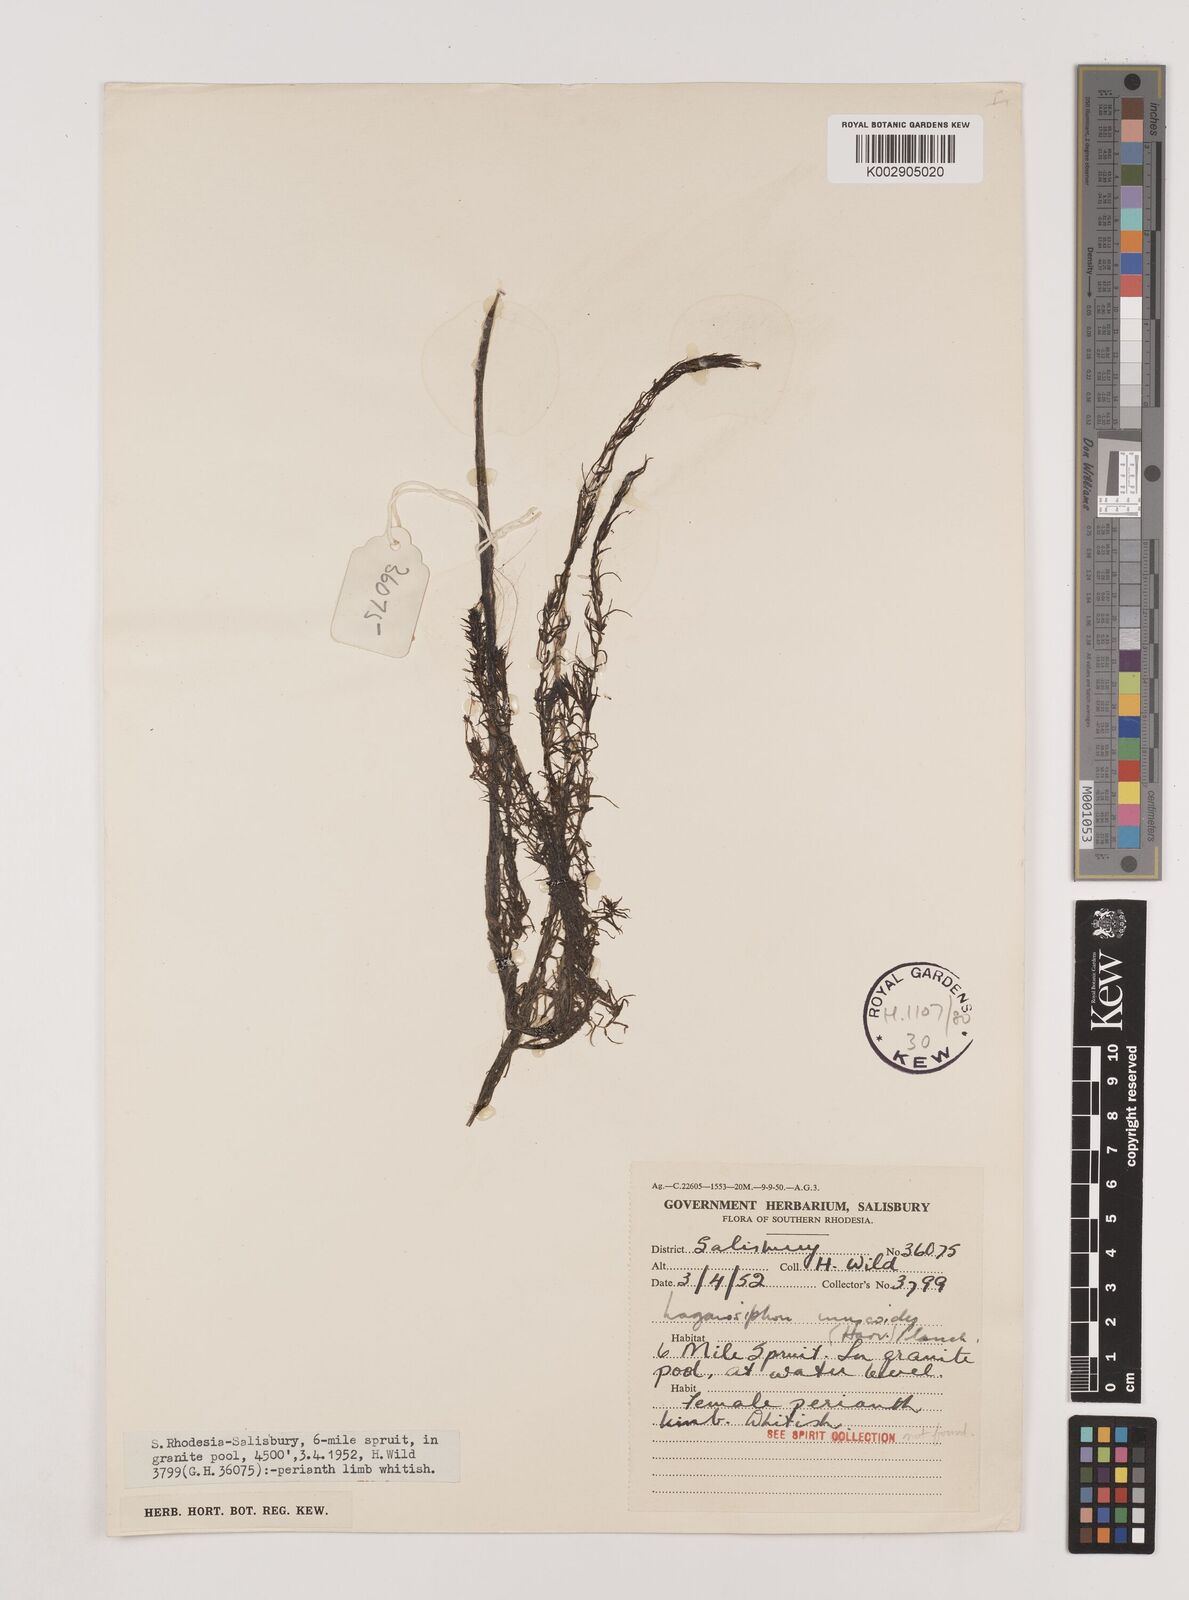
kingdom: Plantae
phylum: Tracheophyta
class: Liliopsida
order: Alismatales
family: Hydrocharitaceae
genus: Lagarosiphon
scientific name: Lagarosiphon muscoides
